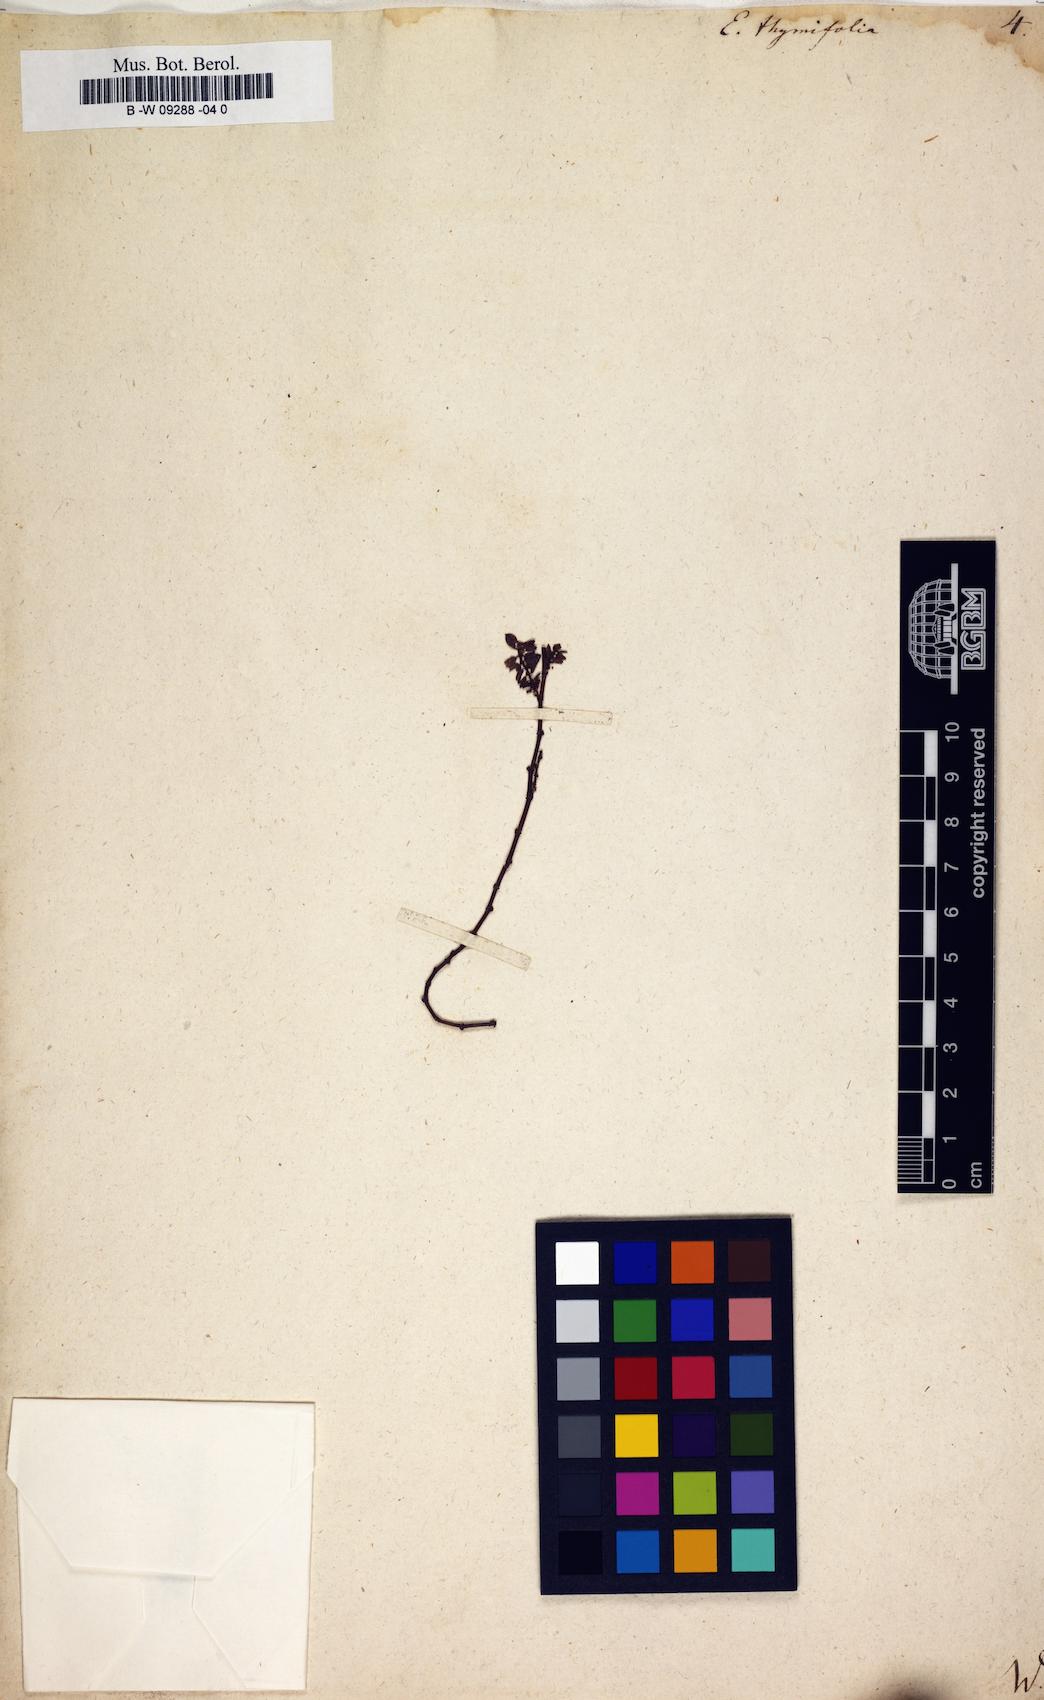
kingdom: Plantae
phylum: Tracheophyta
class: Magnoliopsida
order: Malpighiales
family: Euphorbiaceae
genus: Euphorbia
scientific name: Euphorbia thymifolia
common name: Gulf sandmat
